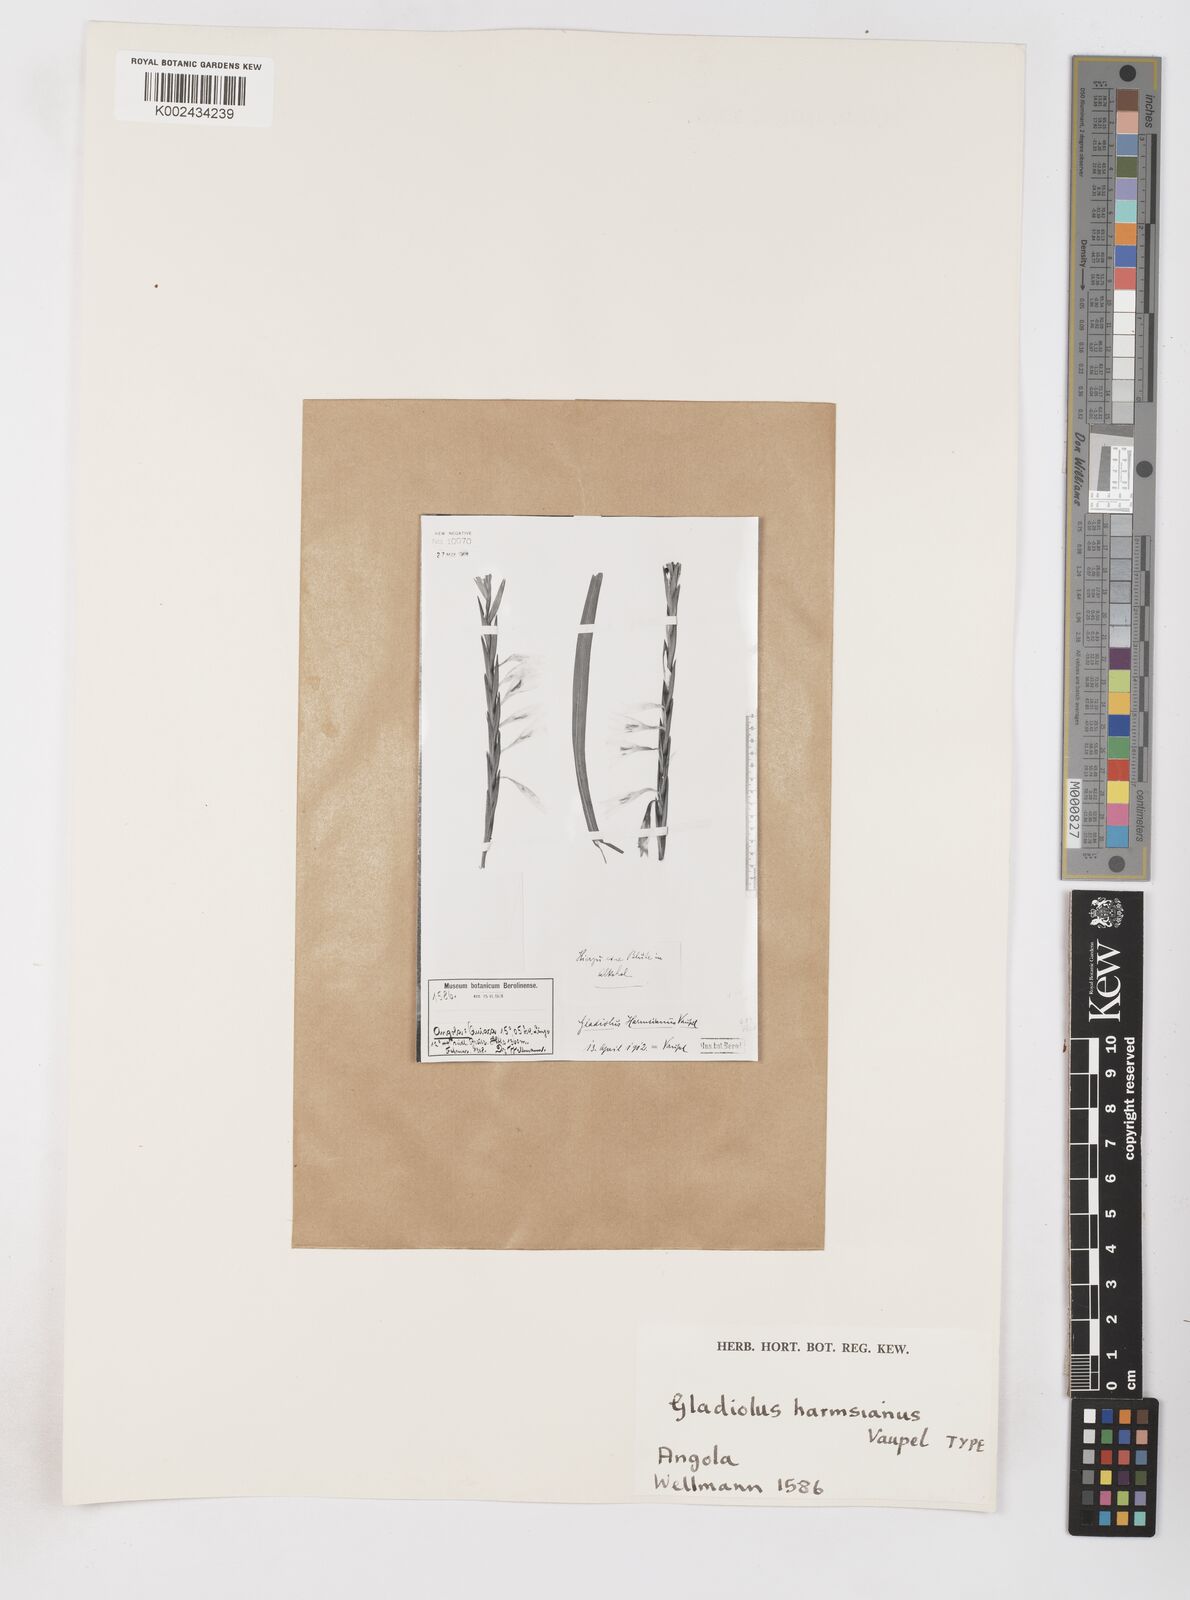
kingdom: Plantae
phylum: Tracheophyta
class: Liliopsida
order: Asparagales
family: Iridaceae
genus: Gladiolus
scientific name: Gladiolus gregarius
